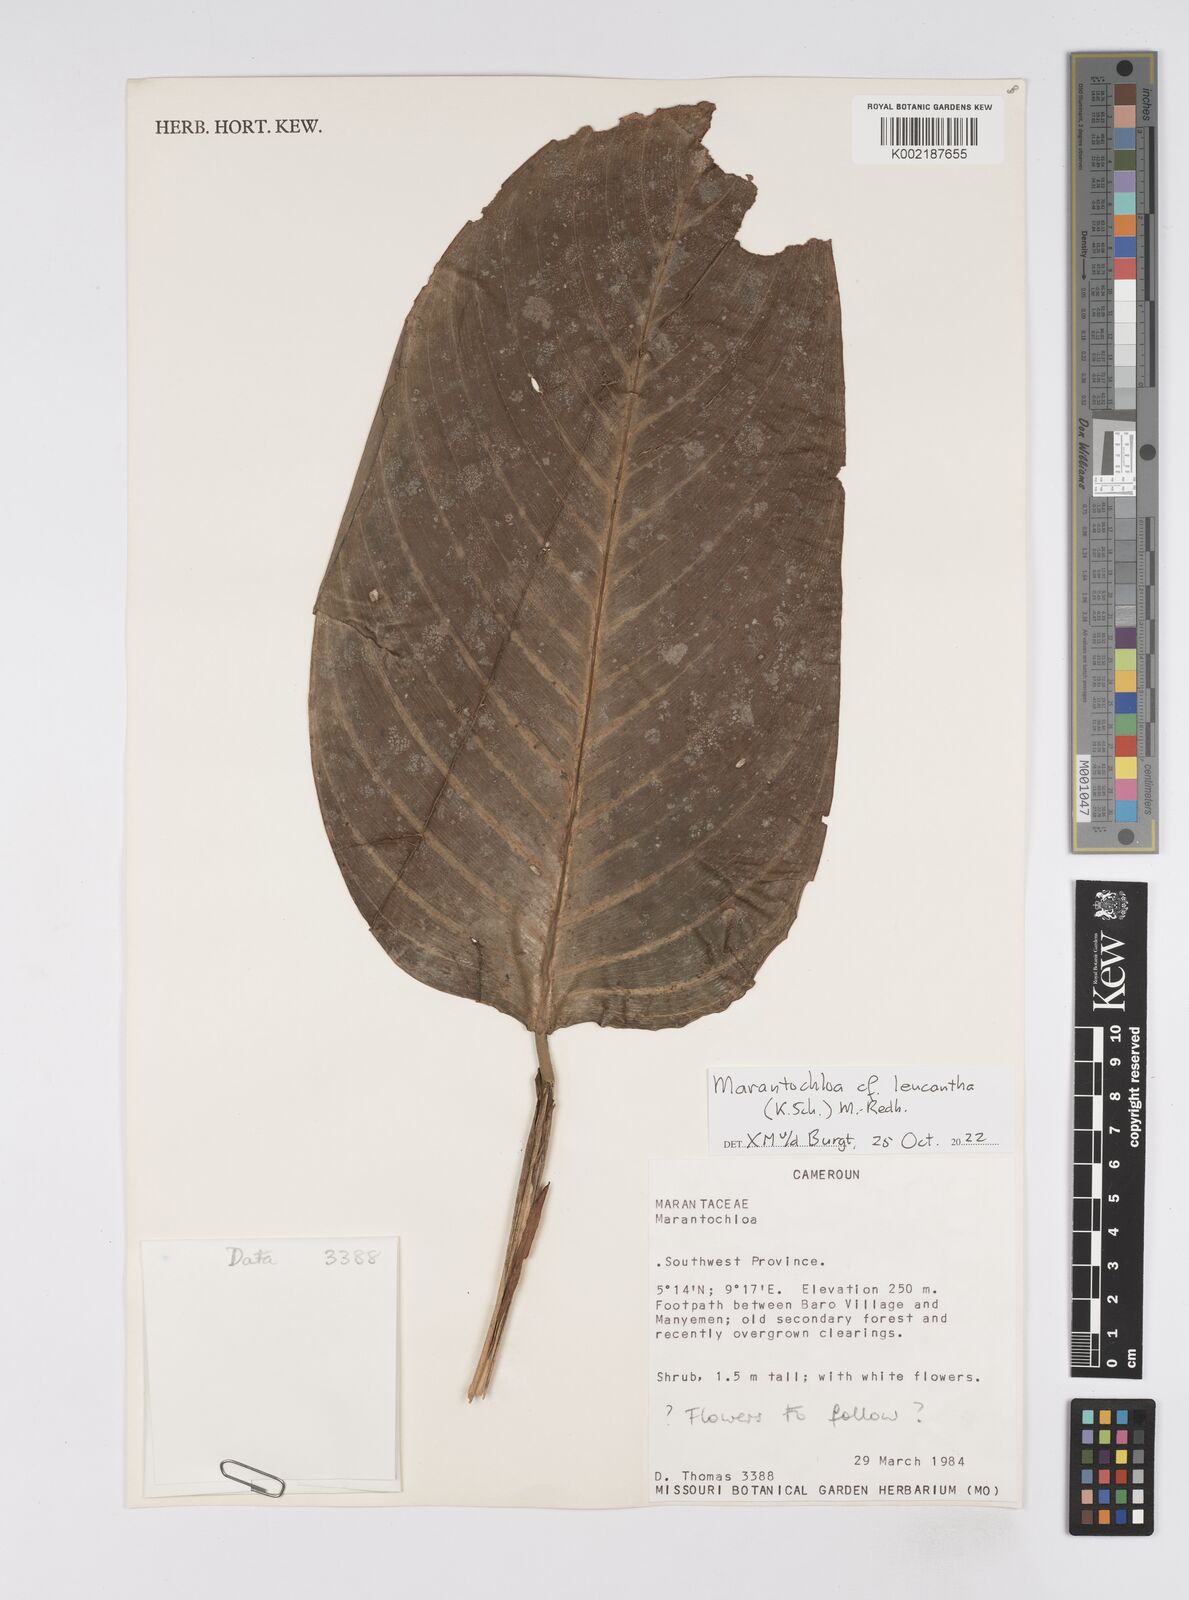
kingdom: Plantae
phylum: Tracheophyta
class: Liliopsida
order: Zingiberales
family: Marantaceae
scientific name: Marantaceae
